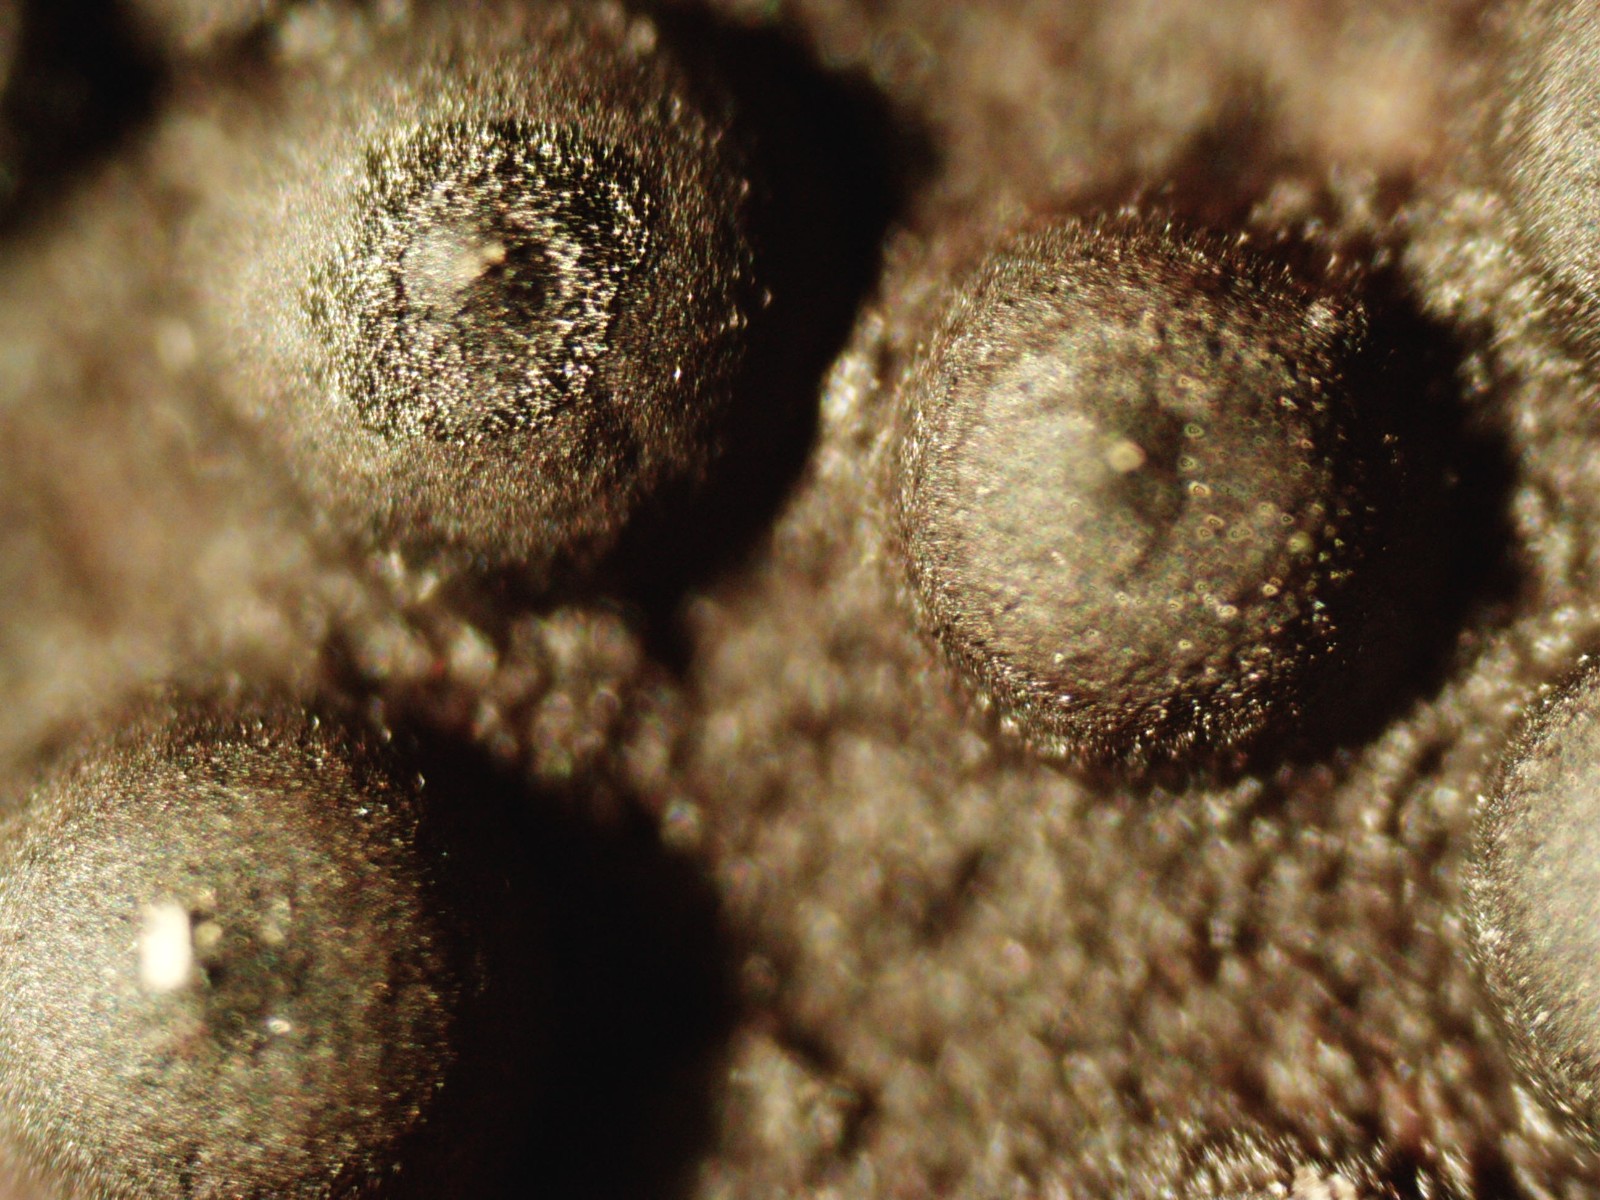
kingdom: Fungi
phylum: Ascomycota
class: Sordariomycetes
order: Xylariales
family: Xylariaceae
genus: Rosellinia
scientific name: Rosellinia
